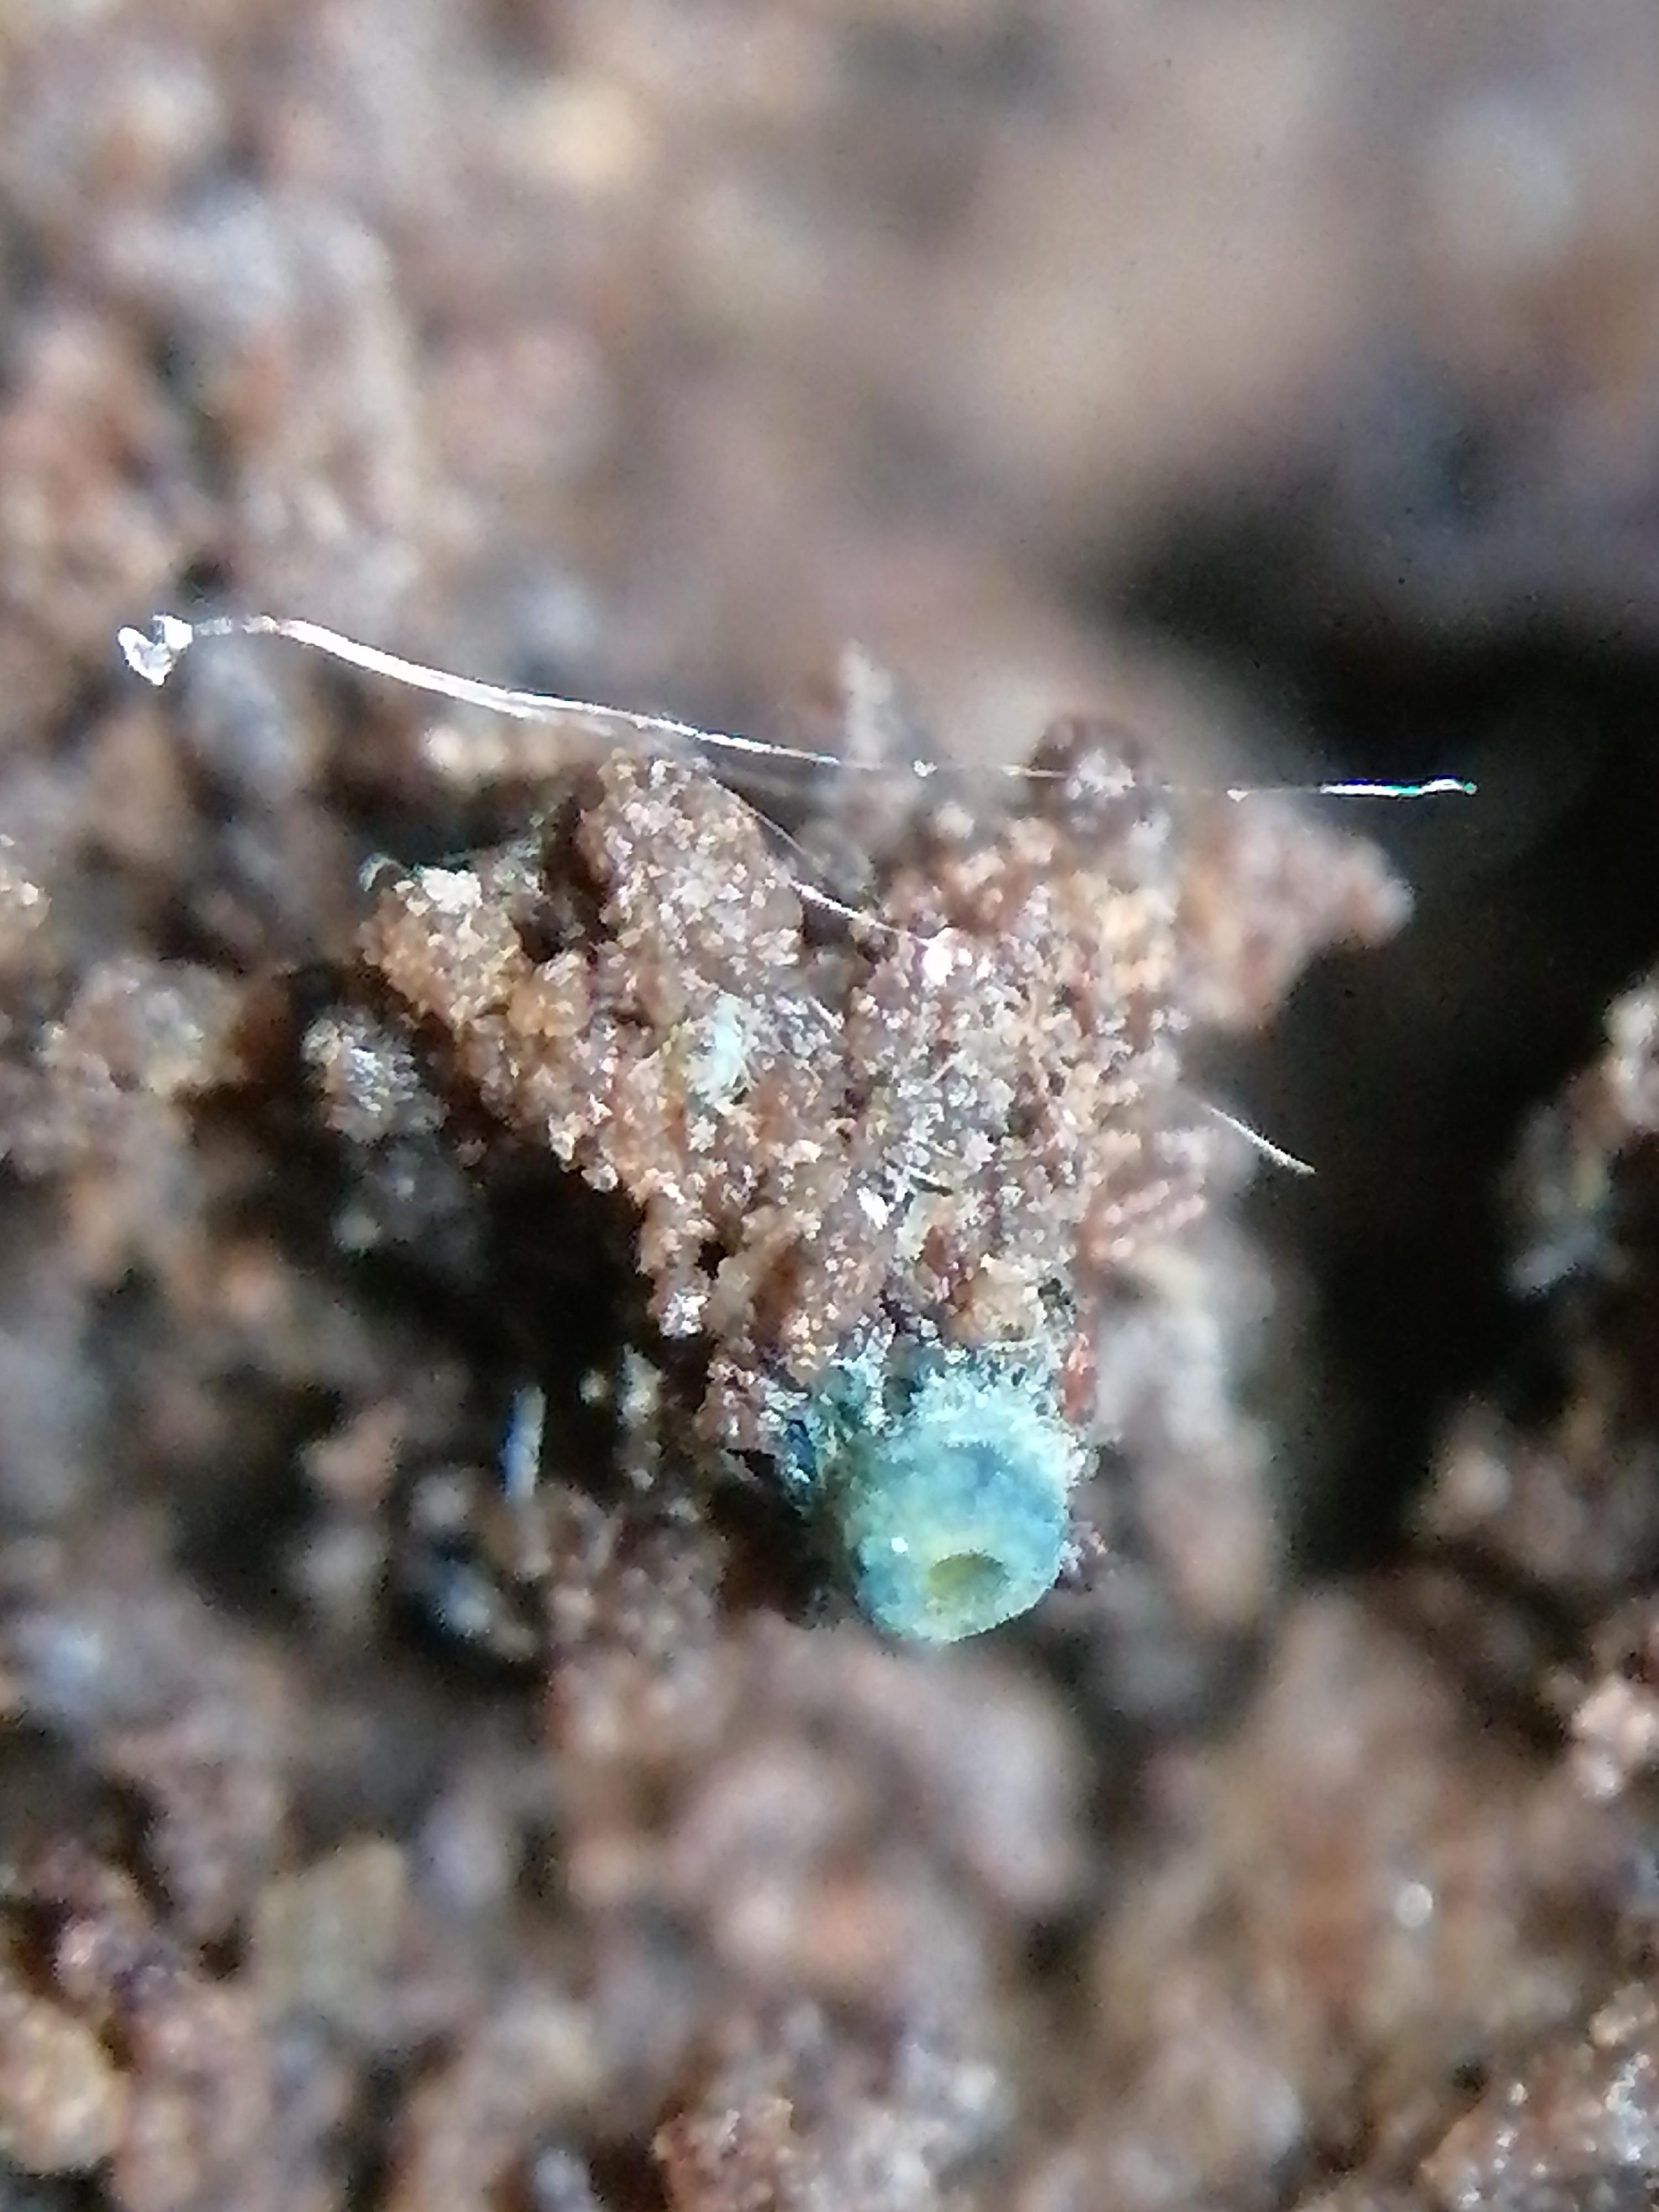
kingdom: Fungi
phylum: Ascomycota
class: Pezizomycetes
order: Pezizales
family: Caloscyphaceae
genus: Caloscypha
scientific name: Caloscypha fulgens
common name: jadebæger
